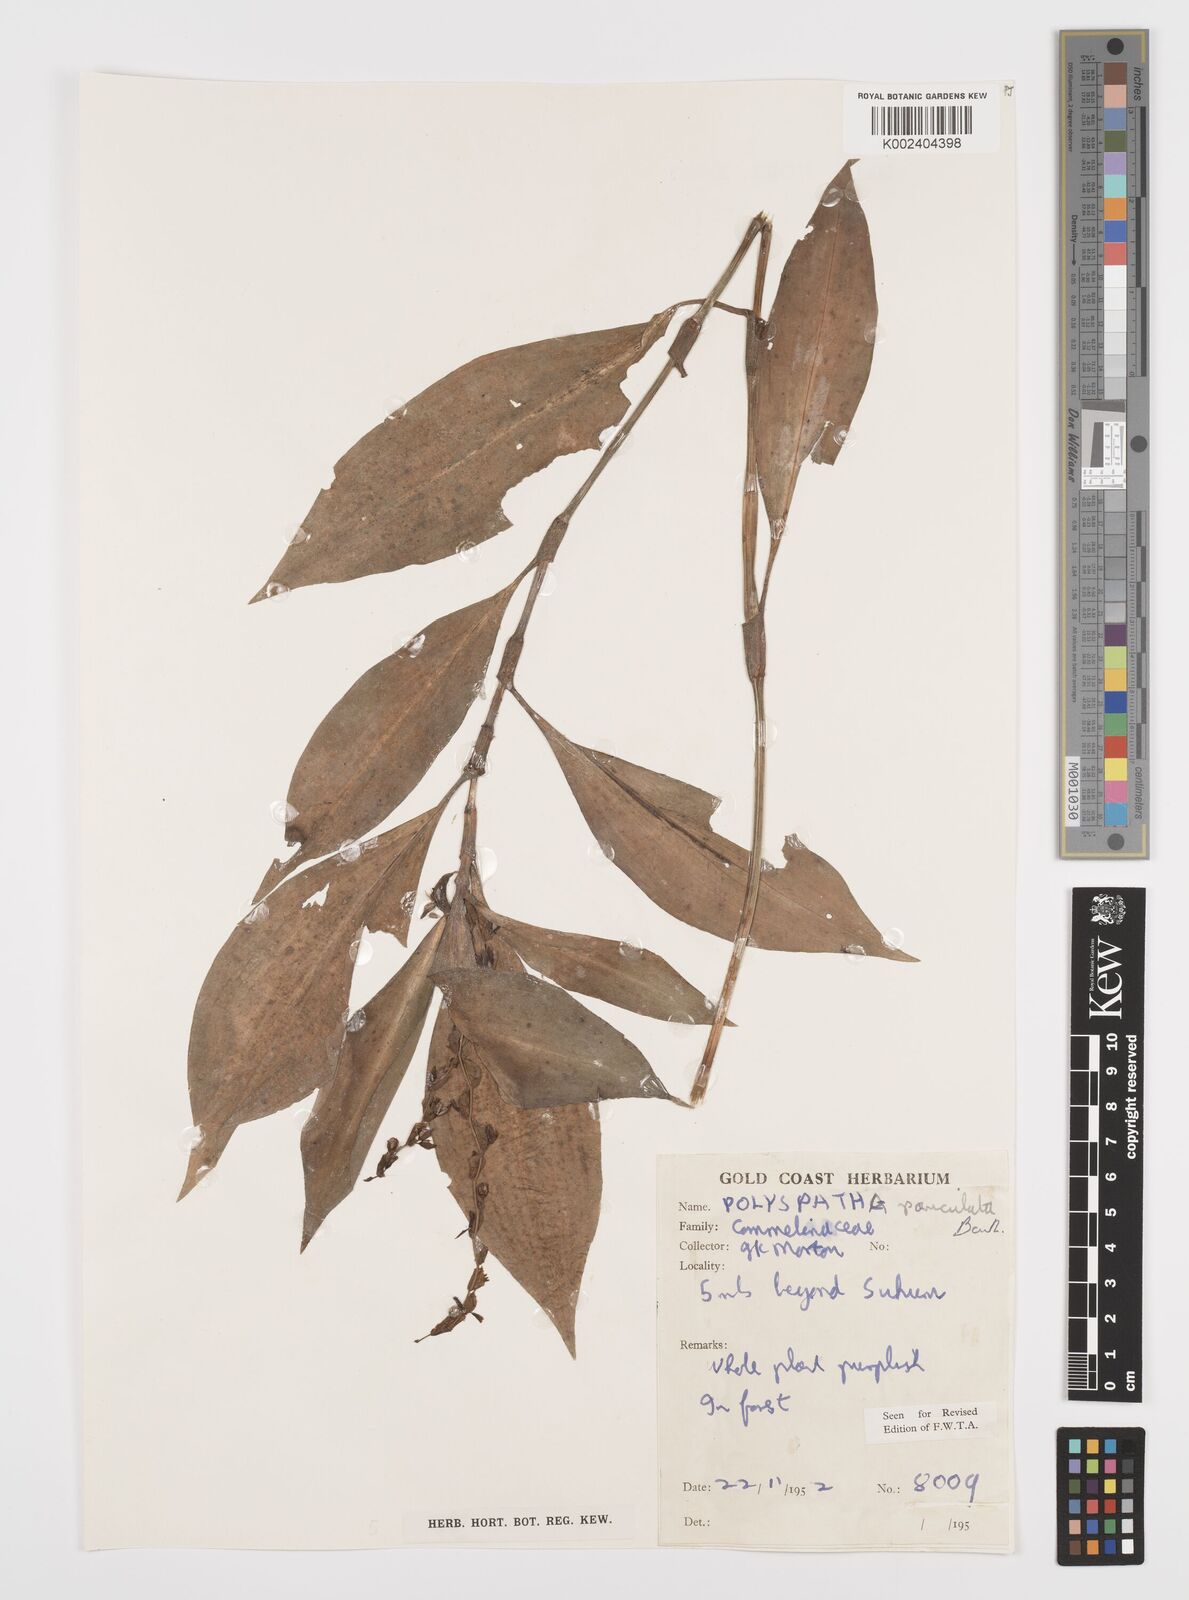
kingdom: Plantae
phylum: Tracheophyta
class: Liliopsida
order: Commelinales
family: Commelinaceae
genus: Polyspatha
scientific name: Polyspatha paniculata
